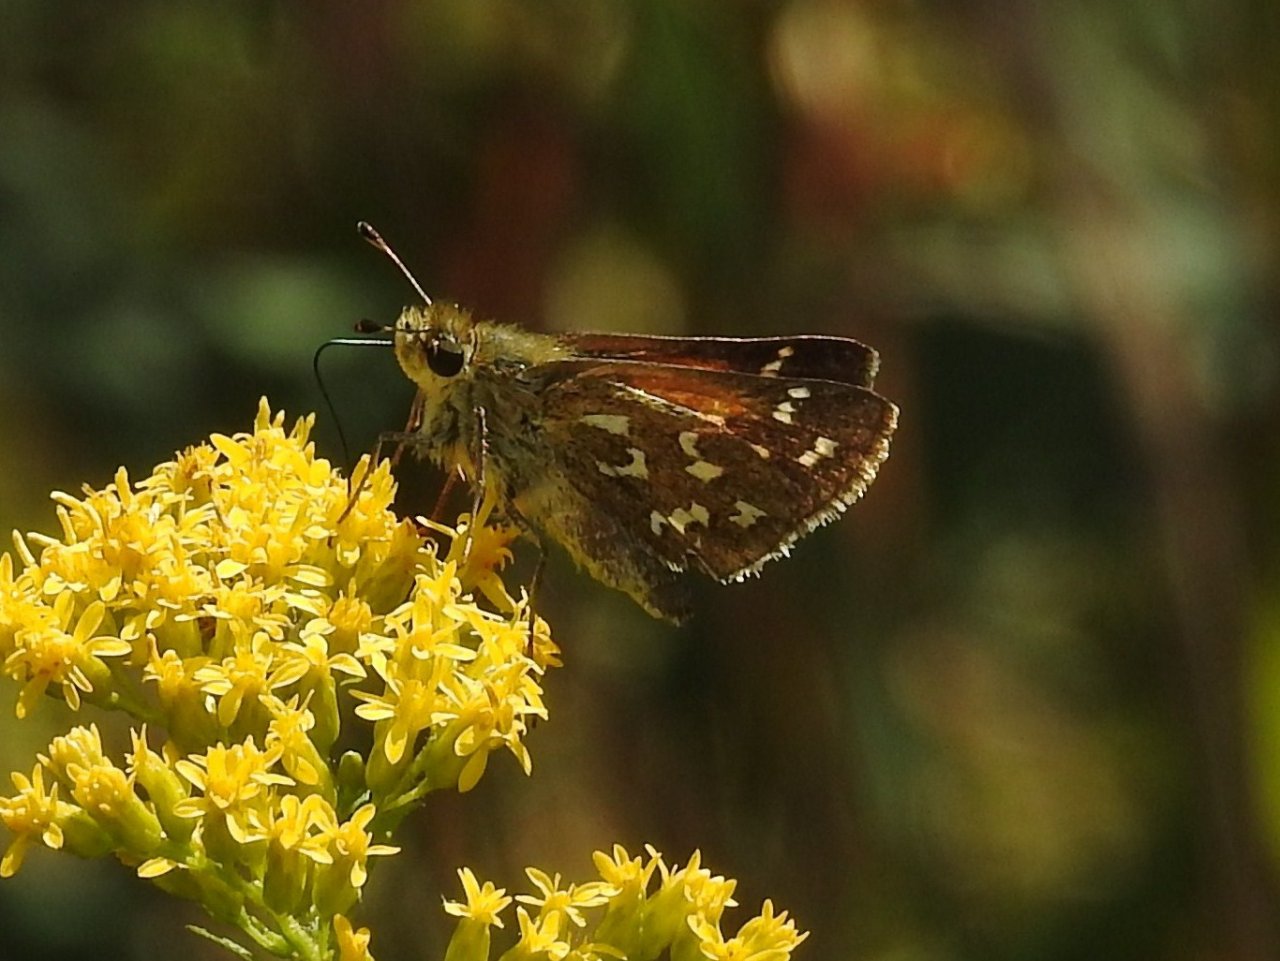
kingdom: Animalia
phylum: Arthropoda
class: Insecta
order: Lepidoptera
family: Hesperiidae
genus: Hesperia
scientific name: Hesperia comma
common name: Common Branded Skipper
